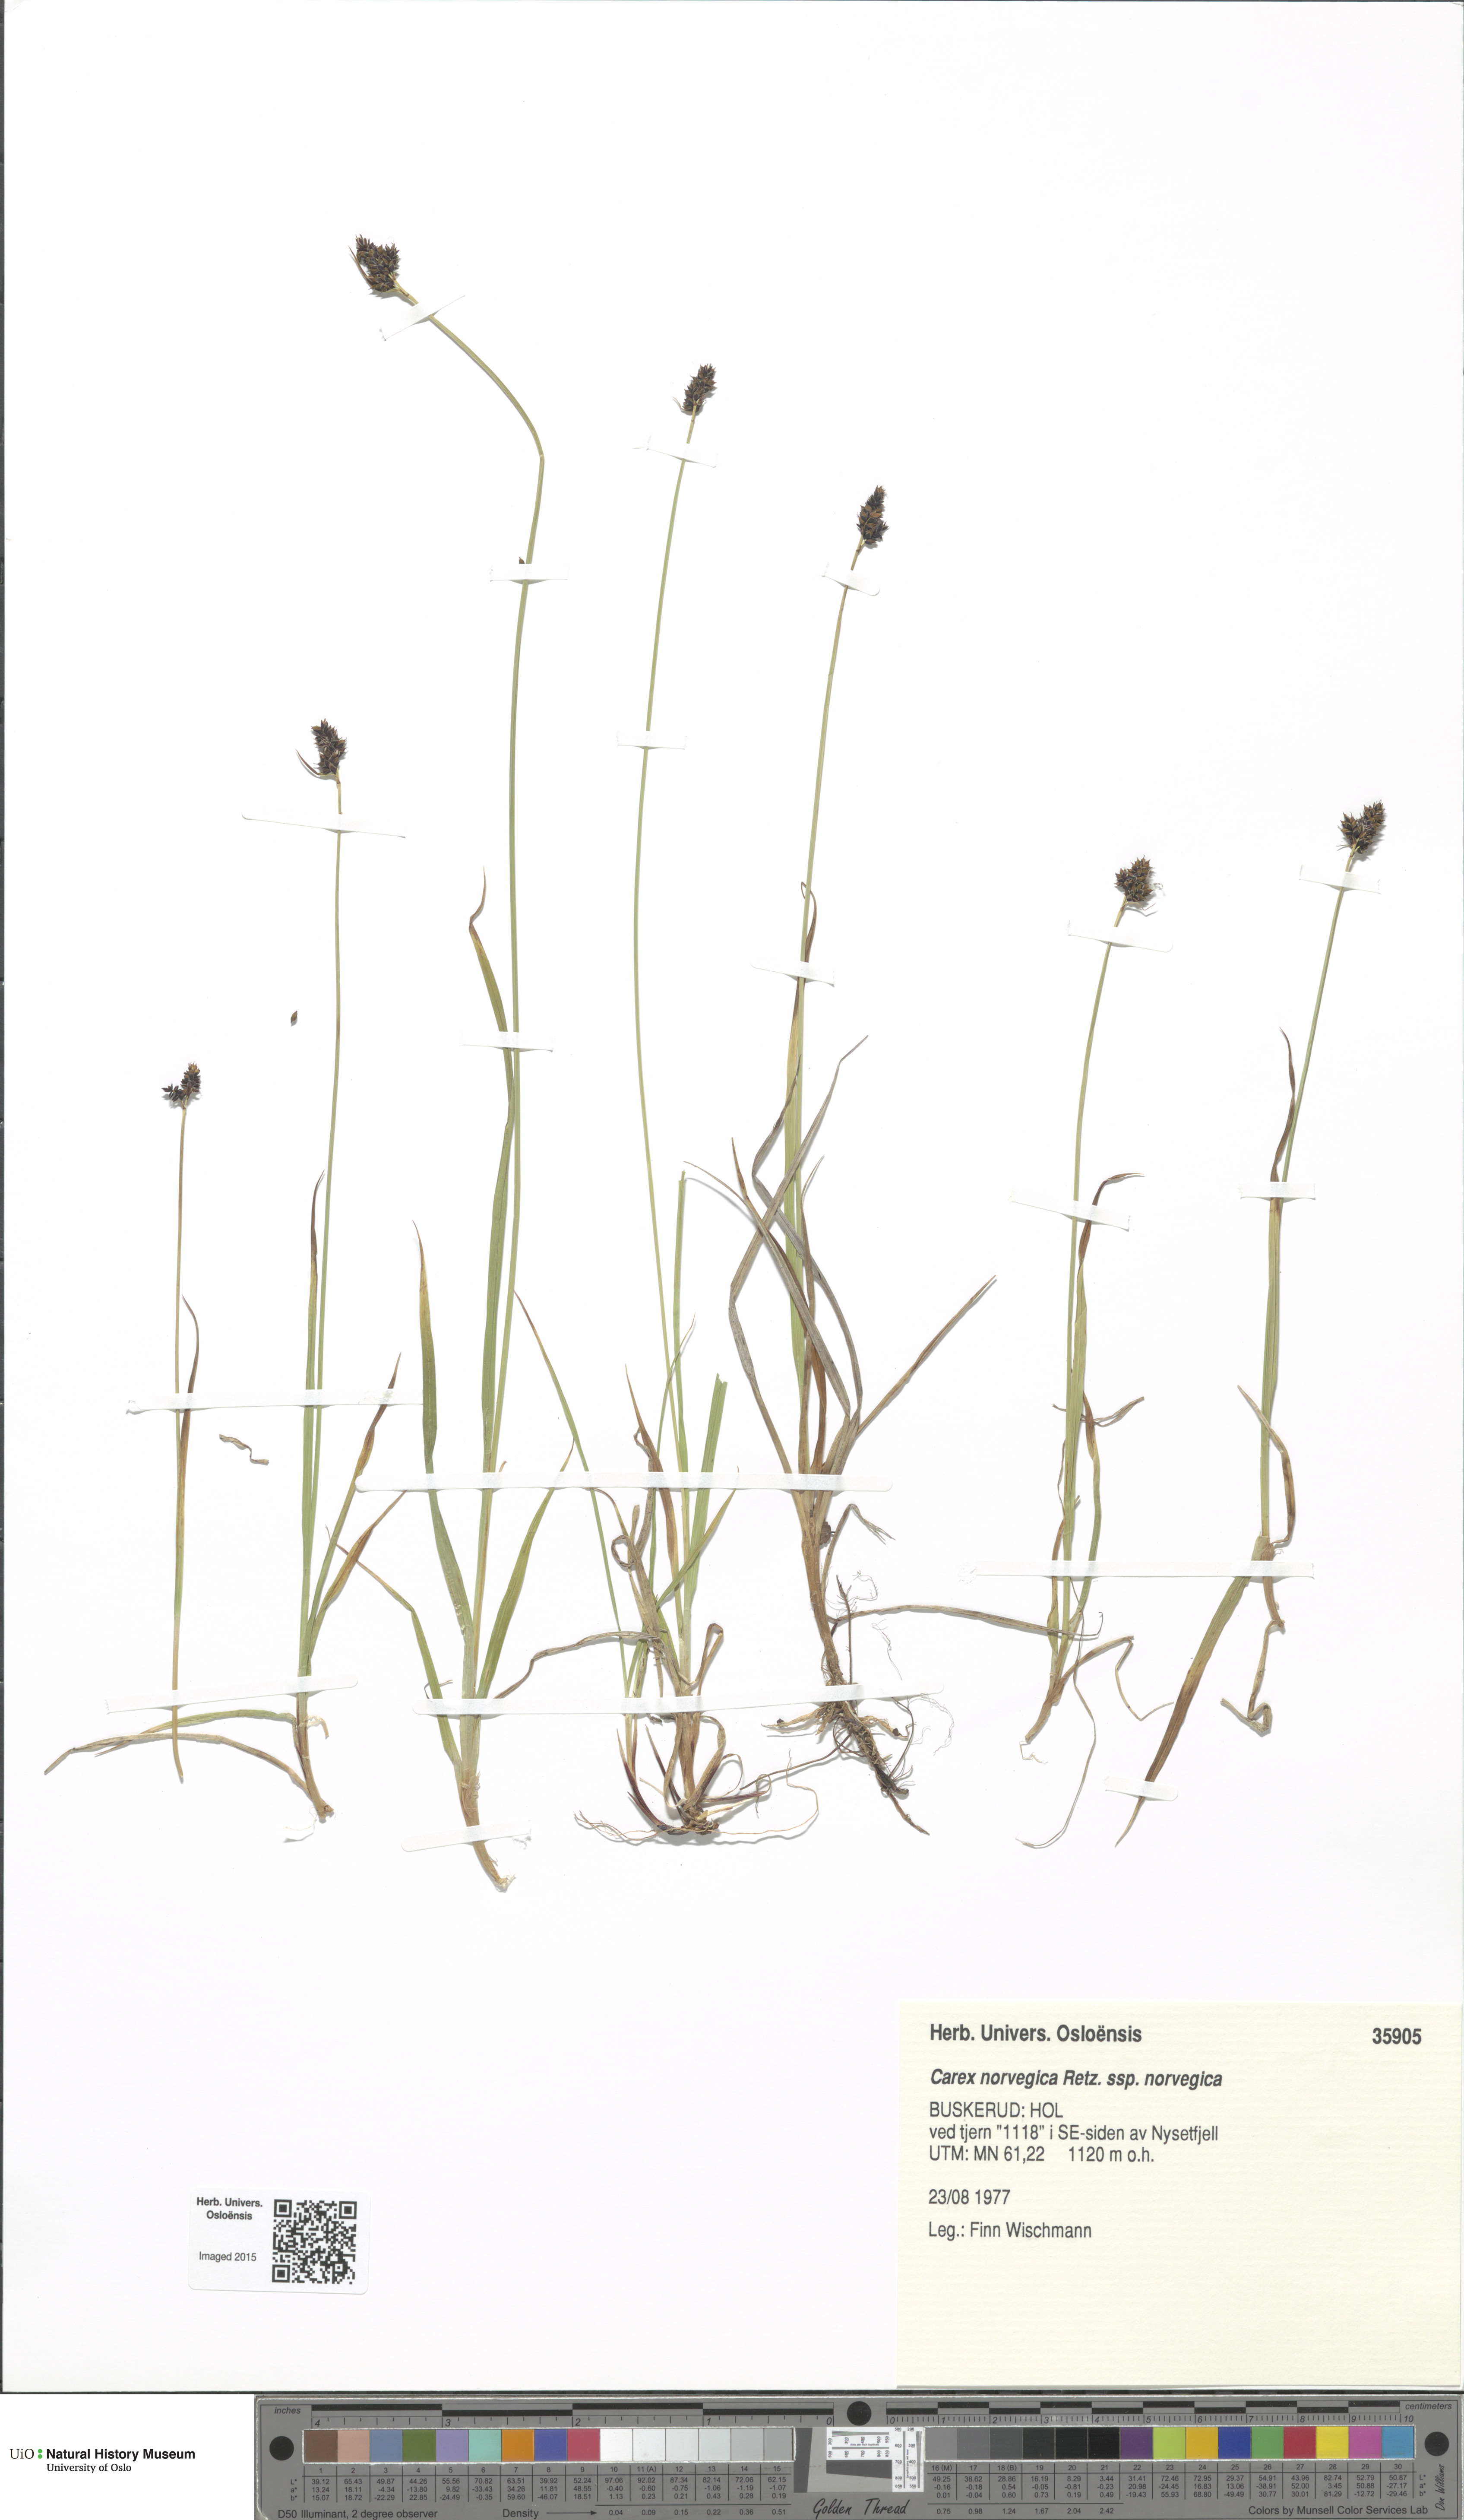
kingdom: Plantae
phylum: Tracheophyta
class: Liliopsida
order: Poales
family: Cyperaceae
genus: Carex
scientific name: Carex norvegica
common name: Close-headed alpine-sedge
